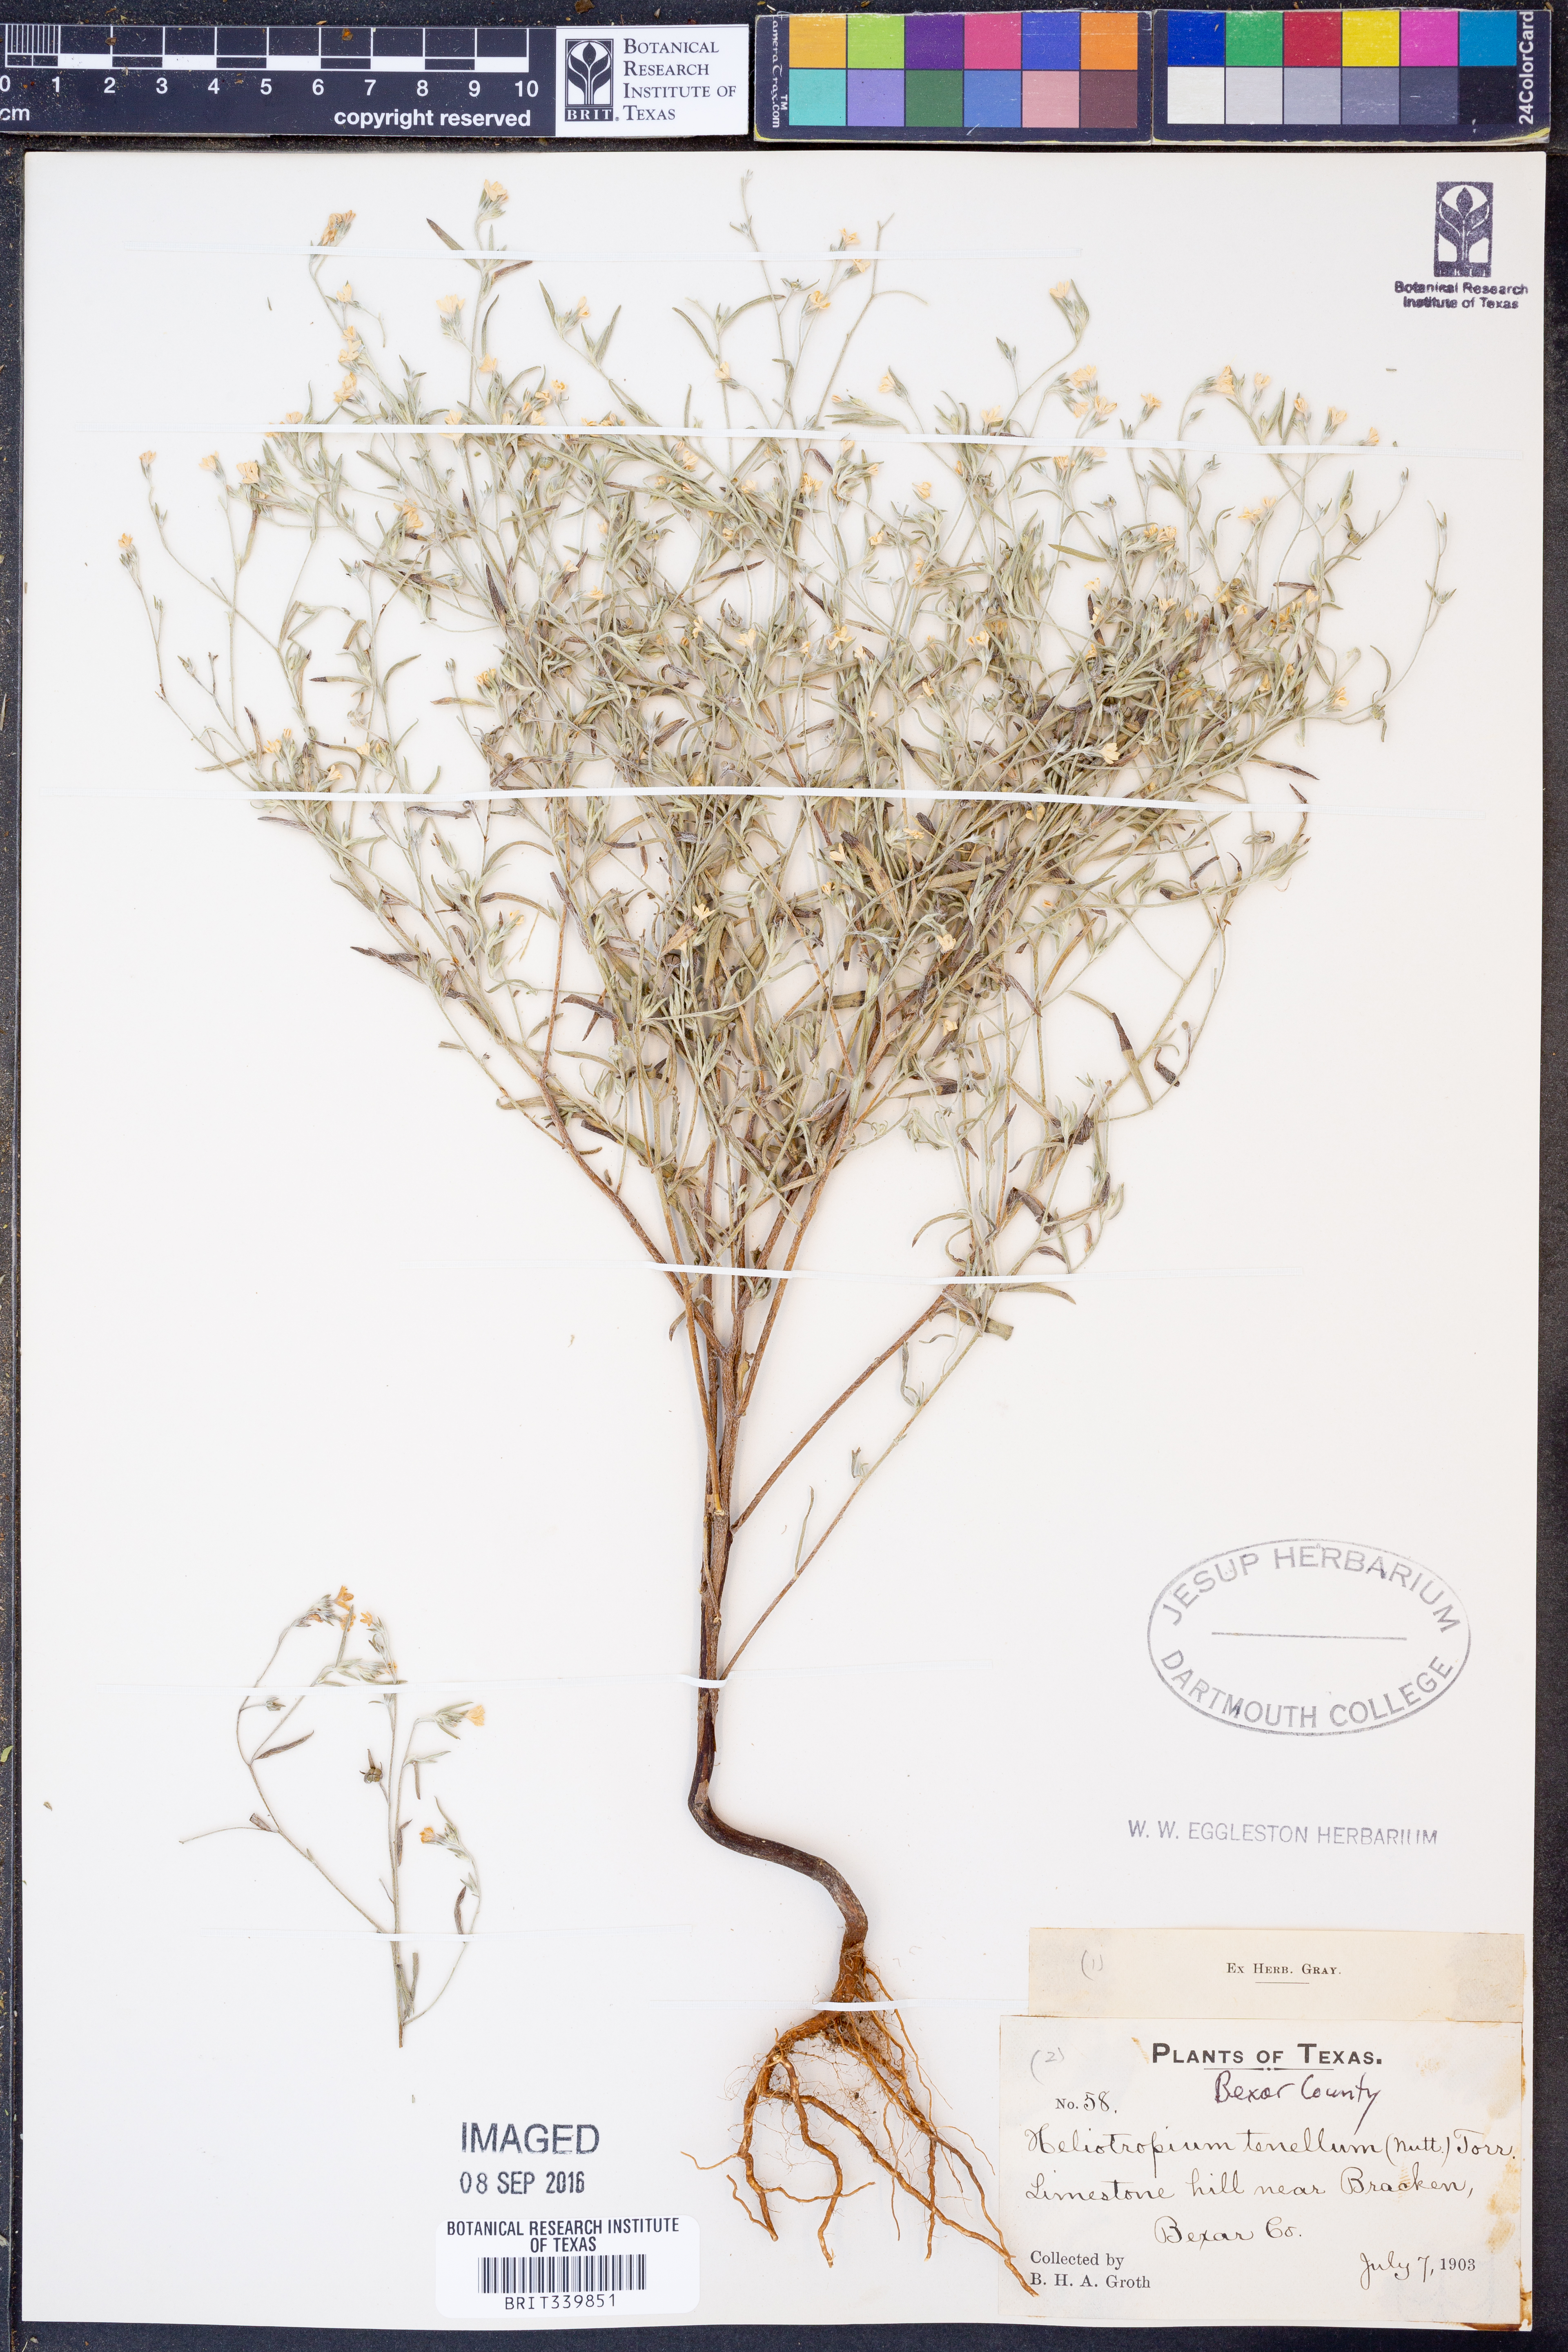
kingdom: Plantae
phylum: Tracheophyta
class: Magnoliopsida
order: Boraginales
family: Heliotropiaceae
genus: Euploca
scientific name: Euploca tenella
